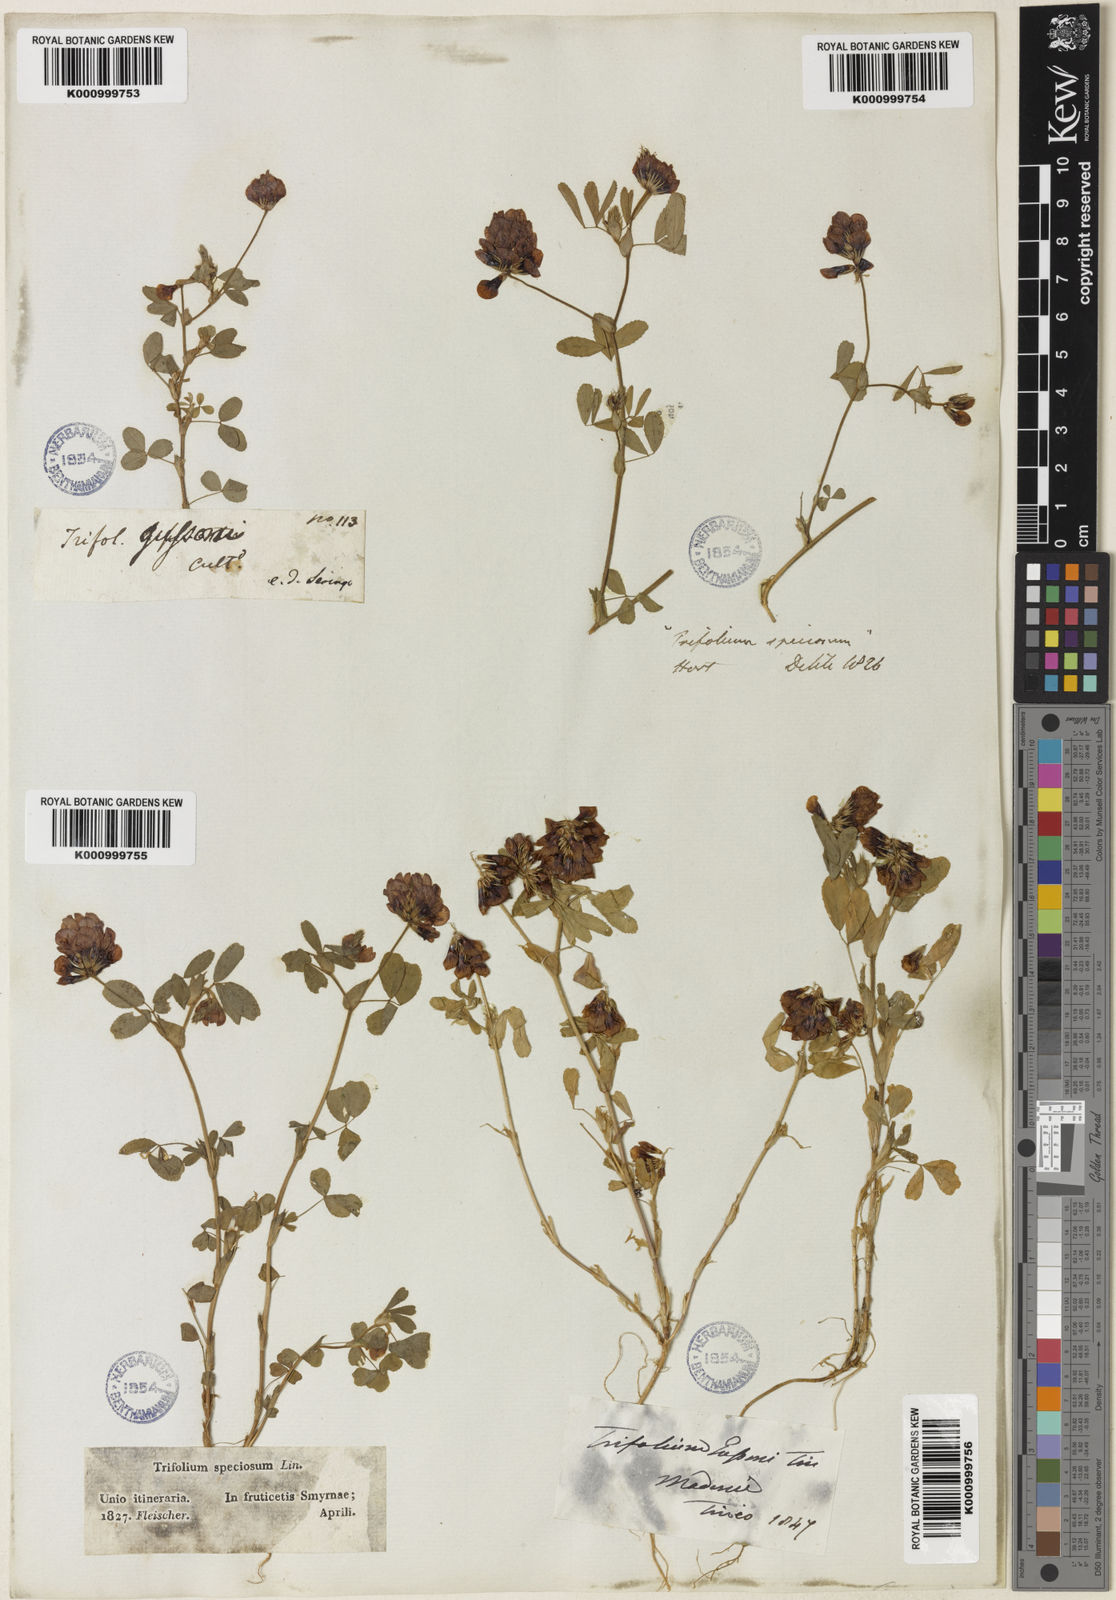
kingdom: Plantae
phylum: Tracheophyta
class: Magnoliopsida
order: Fabales
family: Fabaceae
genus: Trifolium
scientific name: Trifolium boissieri
